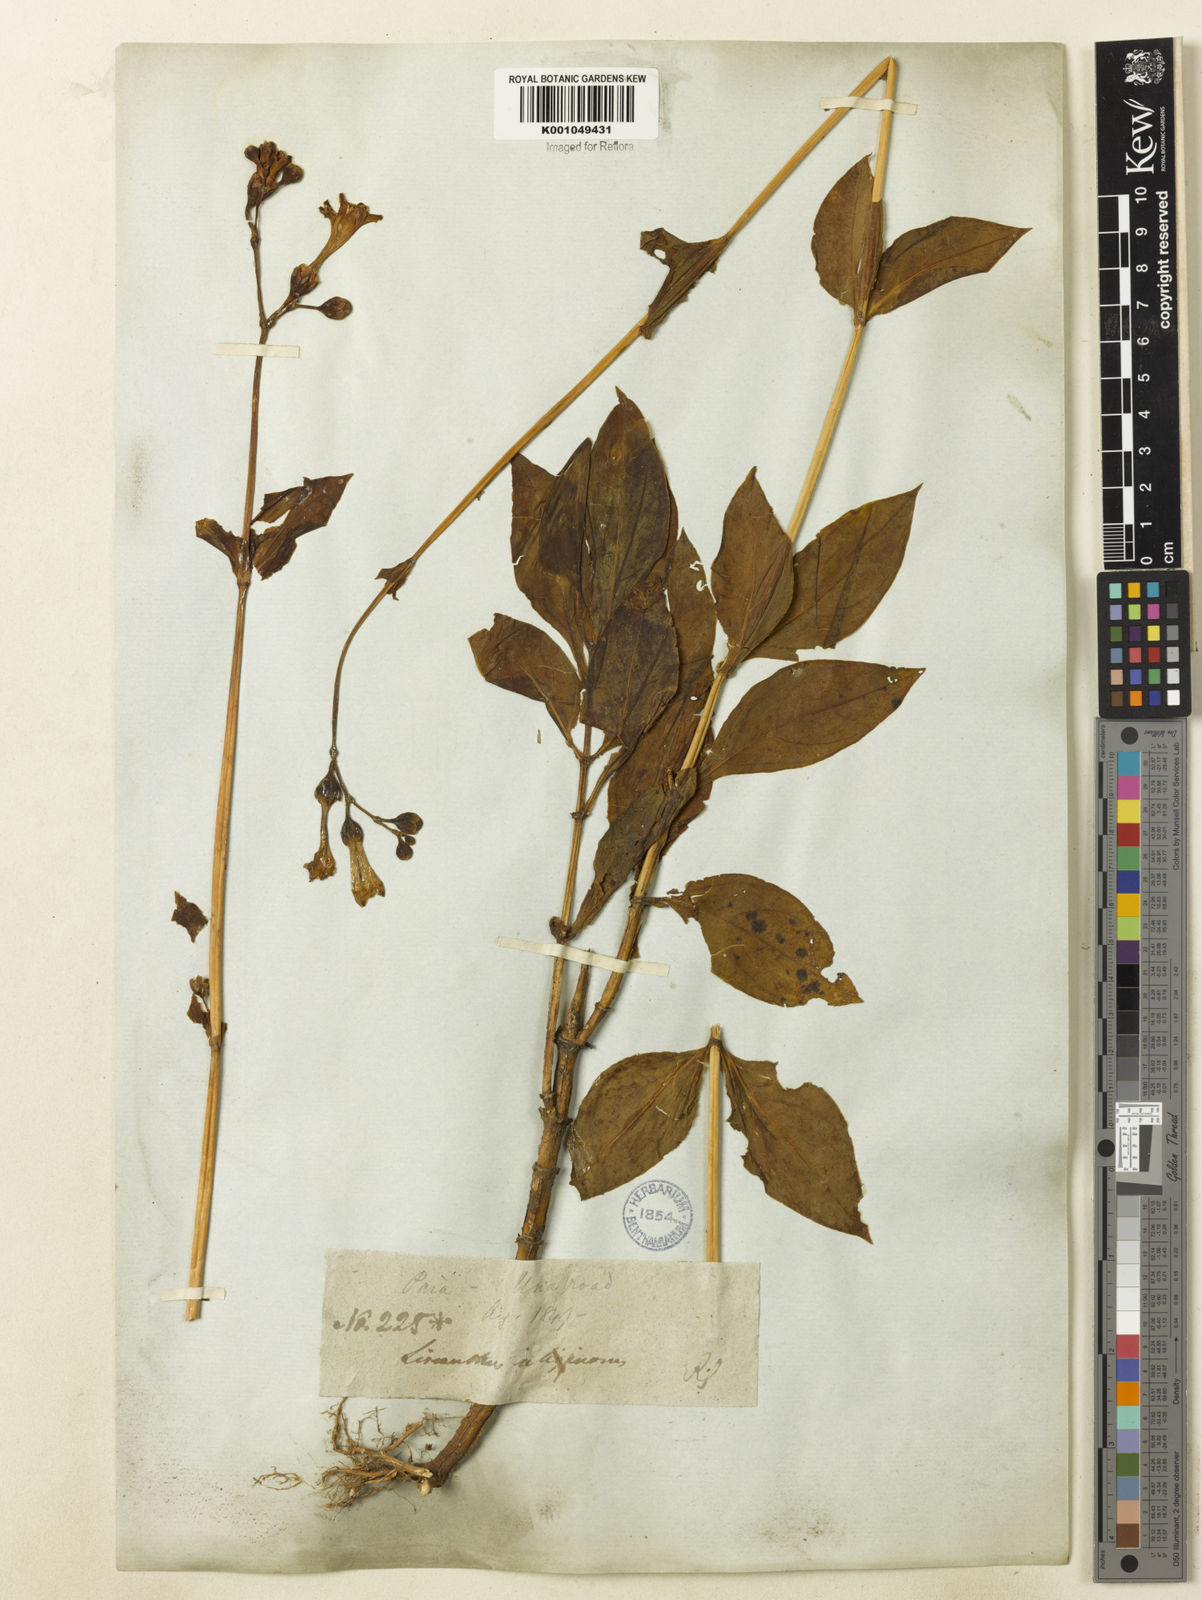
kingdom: Plantae
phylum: Tracheophyta
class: Magnoliopsida
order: Gentianales
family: Gentianaceae
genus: Chelonanthus
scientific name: Chelonanthus purpurascens
